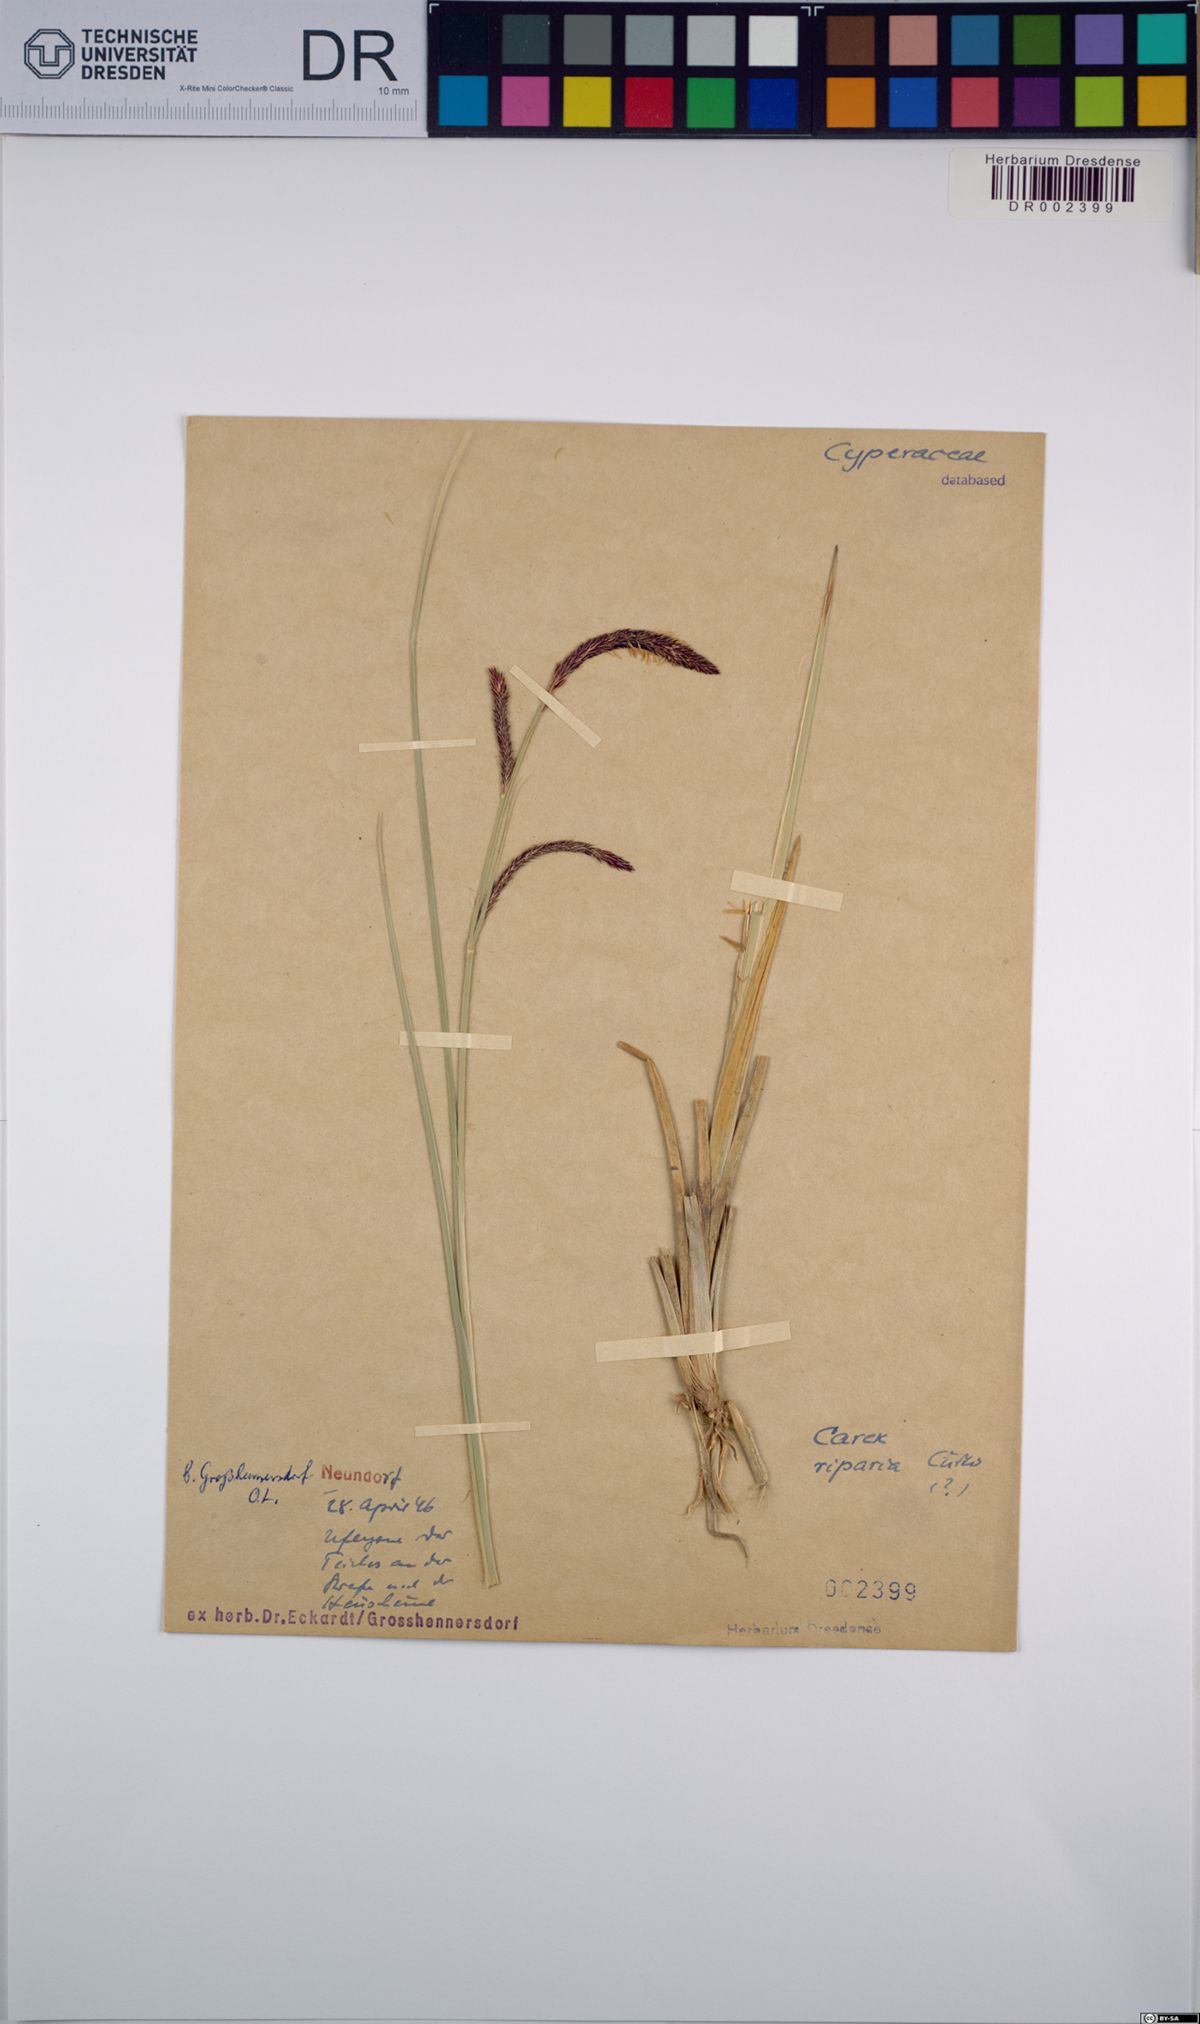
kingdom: Plantae
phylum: Tracheophyta
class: Liliopsida
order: Poales
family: Cyperaceae
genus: Carex
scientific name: Carex riparia
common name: Greater pond-sedge
